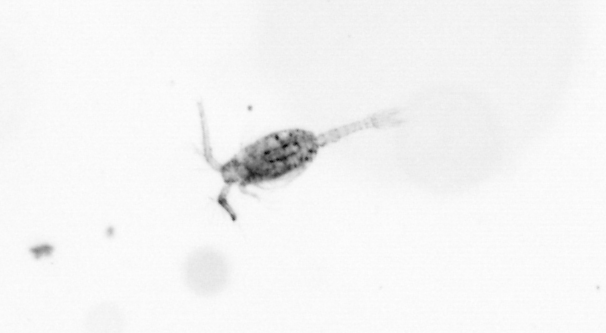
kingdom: Animalia
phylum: Arthropoda
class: Copepoda
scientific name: Copepoda
